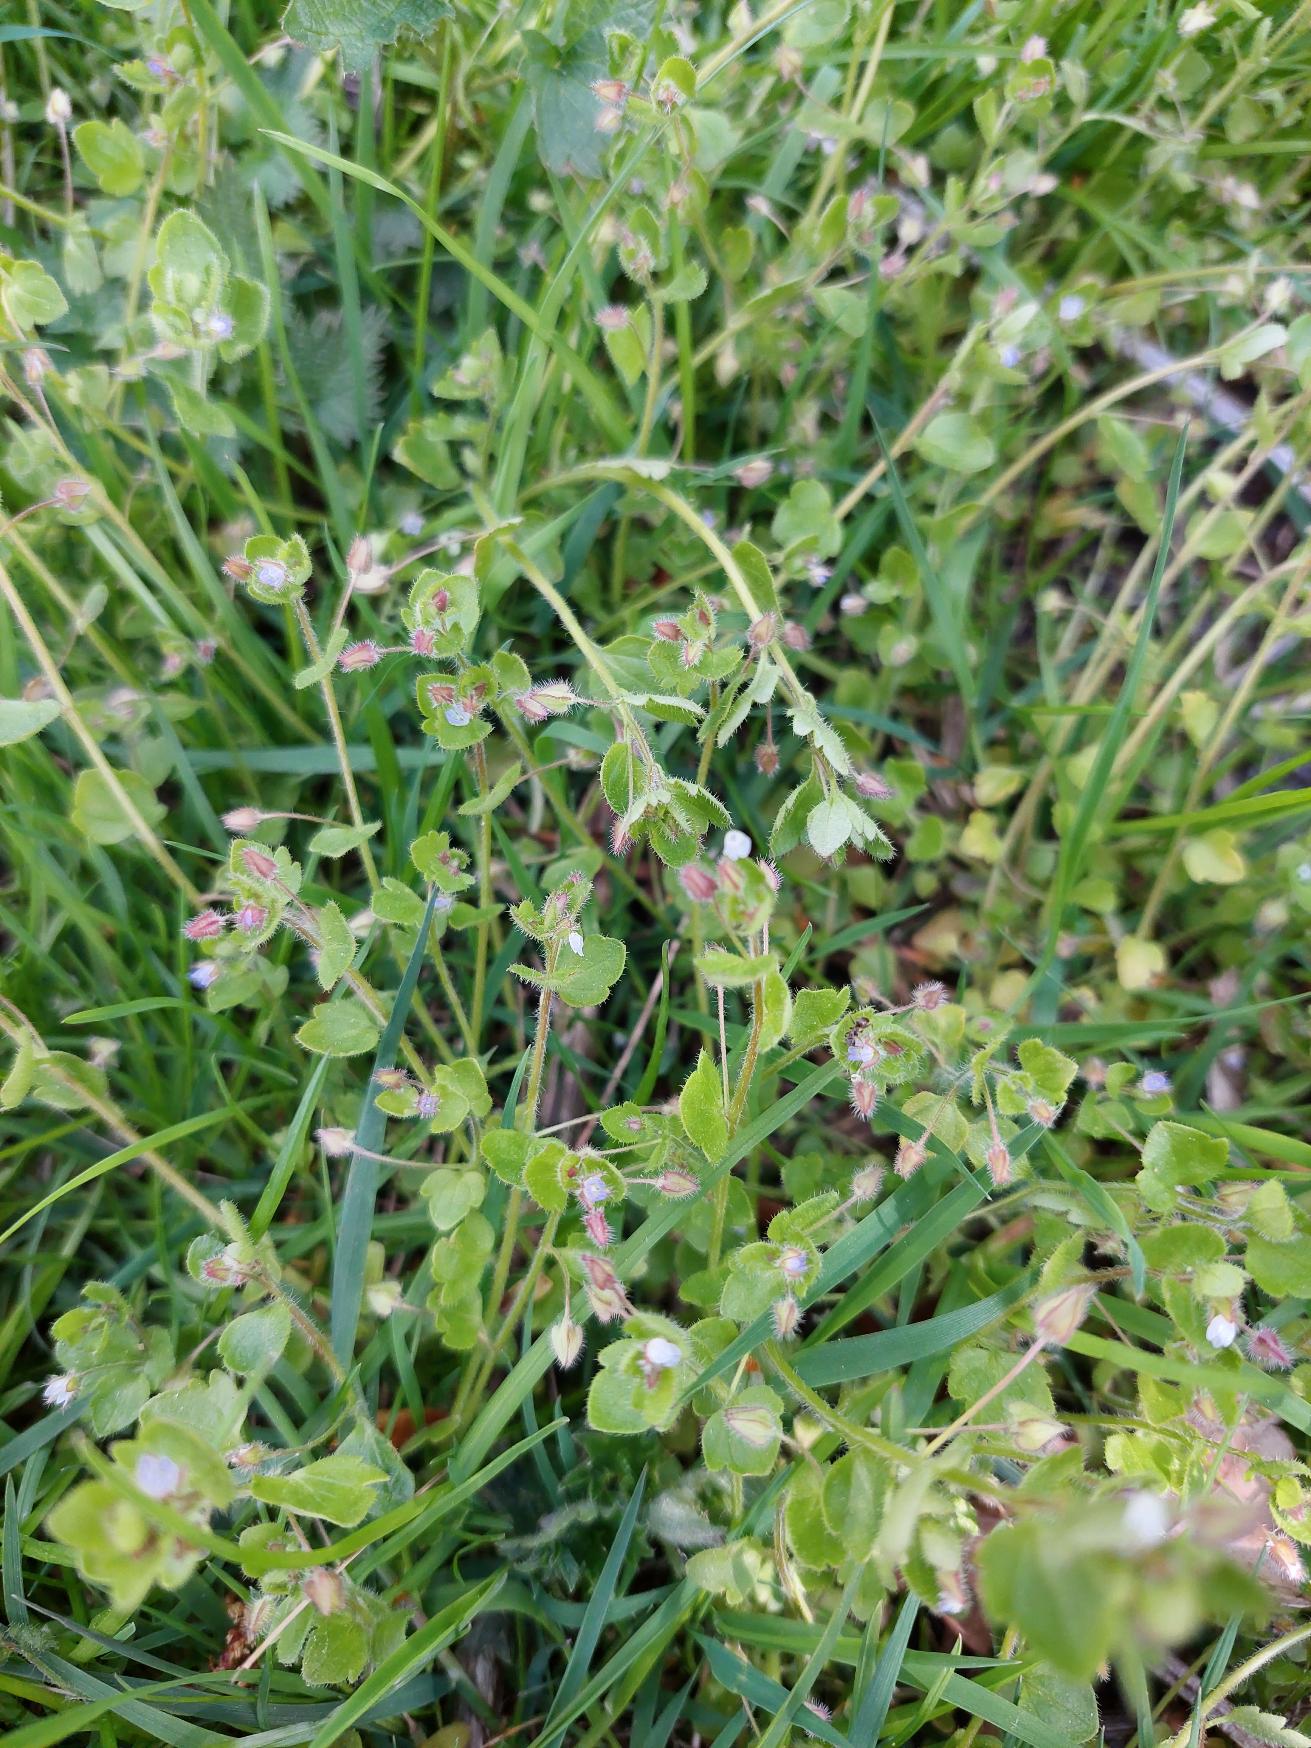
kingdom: Plantae
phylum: Tracheophyta
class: Magnoliopsida
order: Lamiales
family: Plantaginaceae
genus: Veronica
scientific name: Veronica sublobata
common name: Krat-ærenpris
